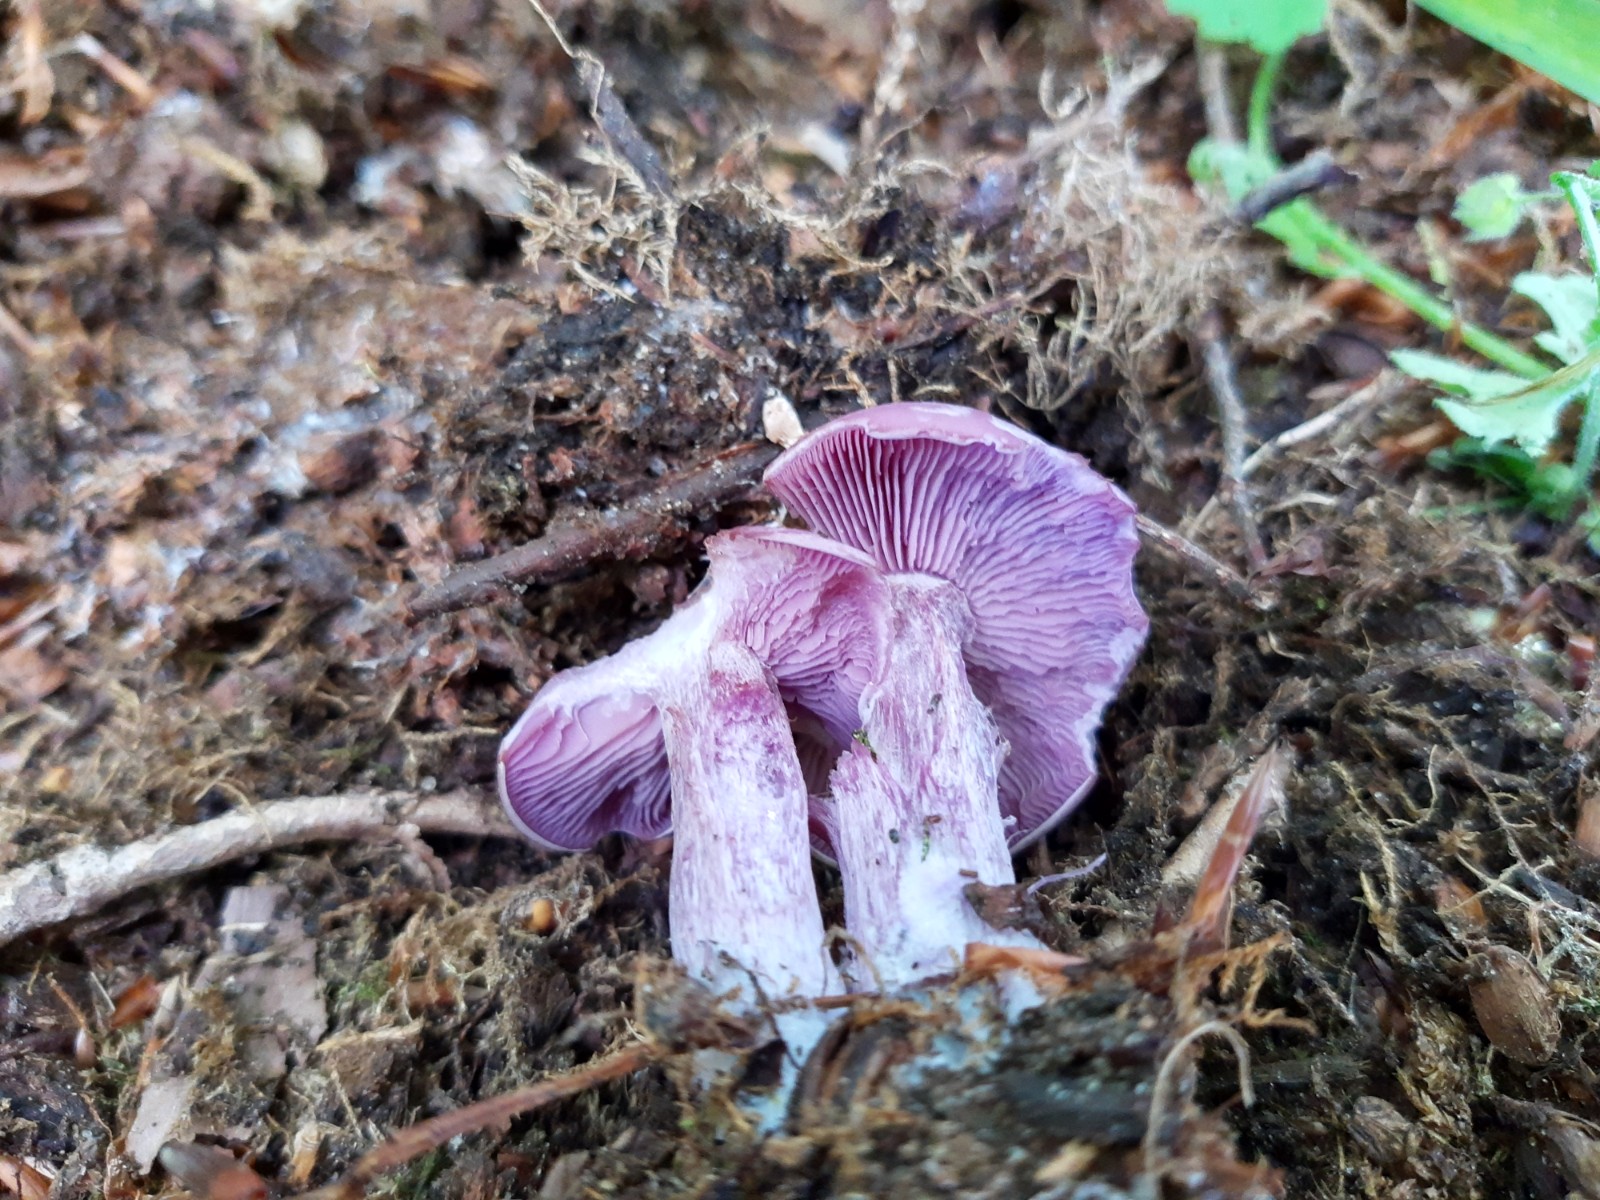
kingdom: Fungi
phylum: Basidiomycota
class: Agaricomycetes
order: Agaricales
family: Tricholomataceae
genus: Lepista
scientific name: Lepista nuda
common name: violet hekseringshat
